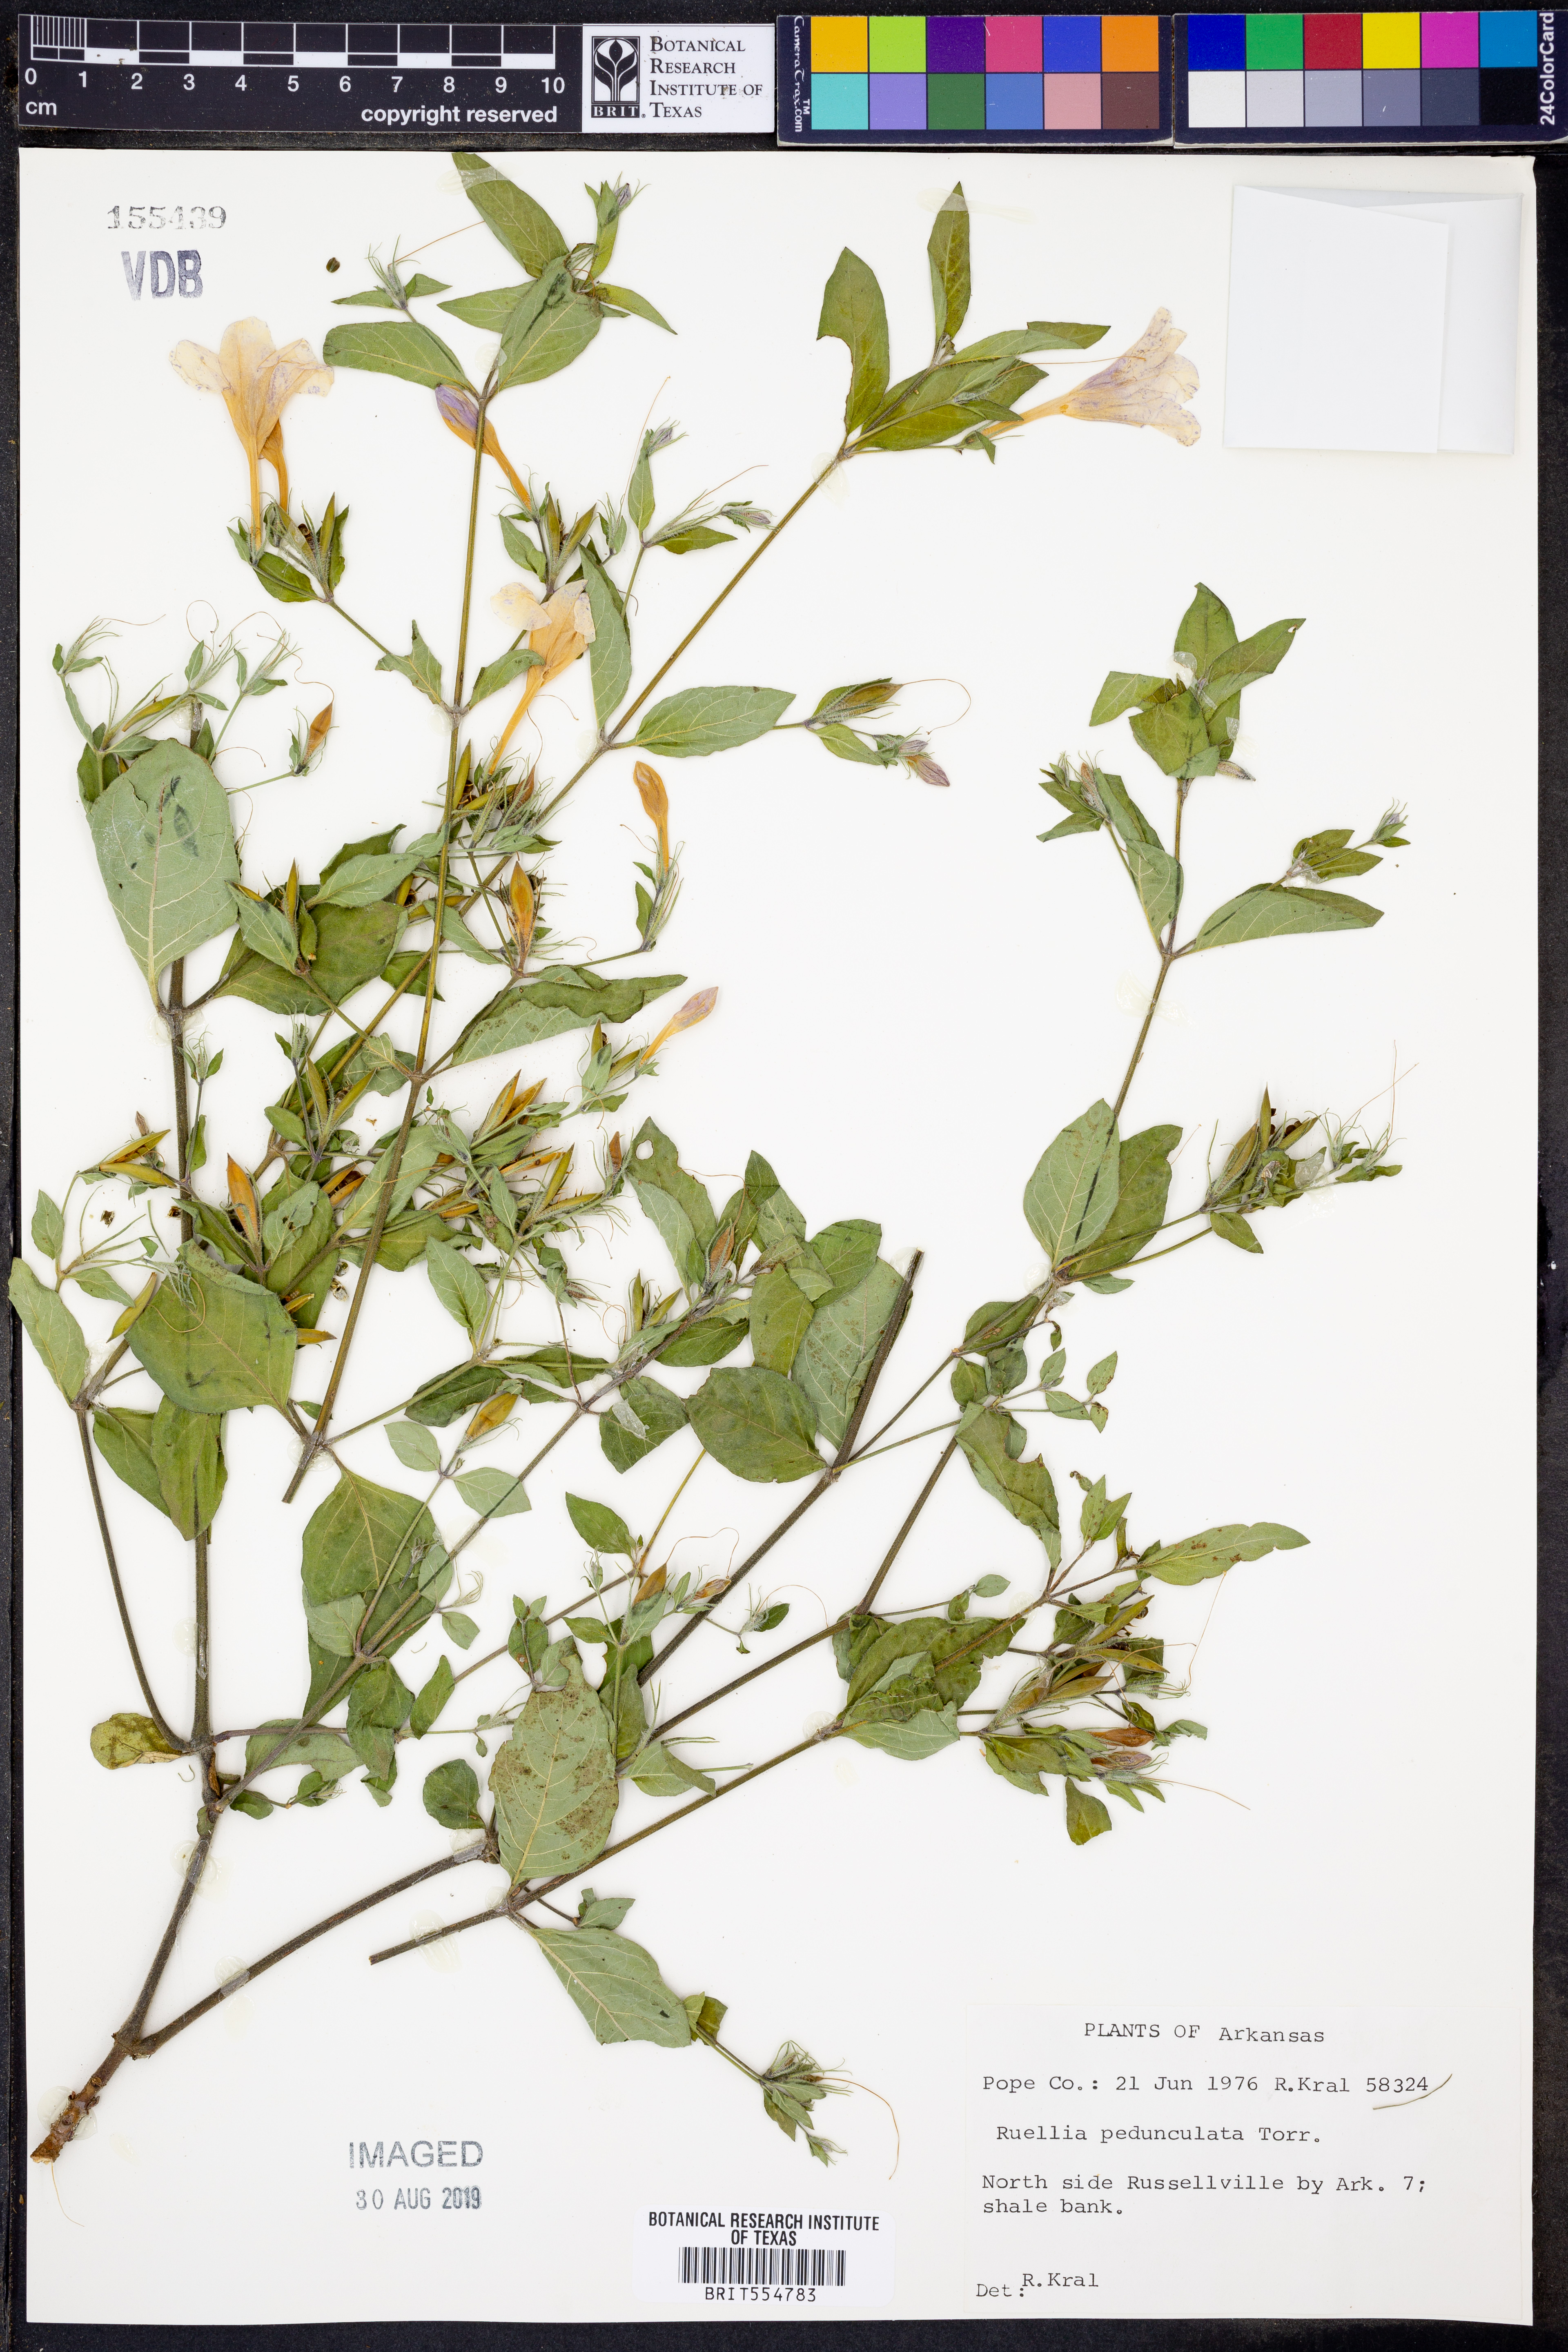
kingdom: Plantae
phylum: Tracheophyta
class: Magnoliopsida
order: Lamiales
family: Acanthaceae
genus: Ruellia
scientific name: Ruellia pedunculata
